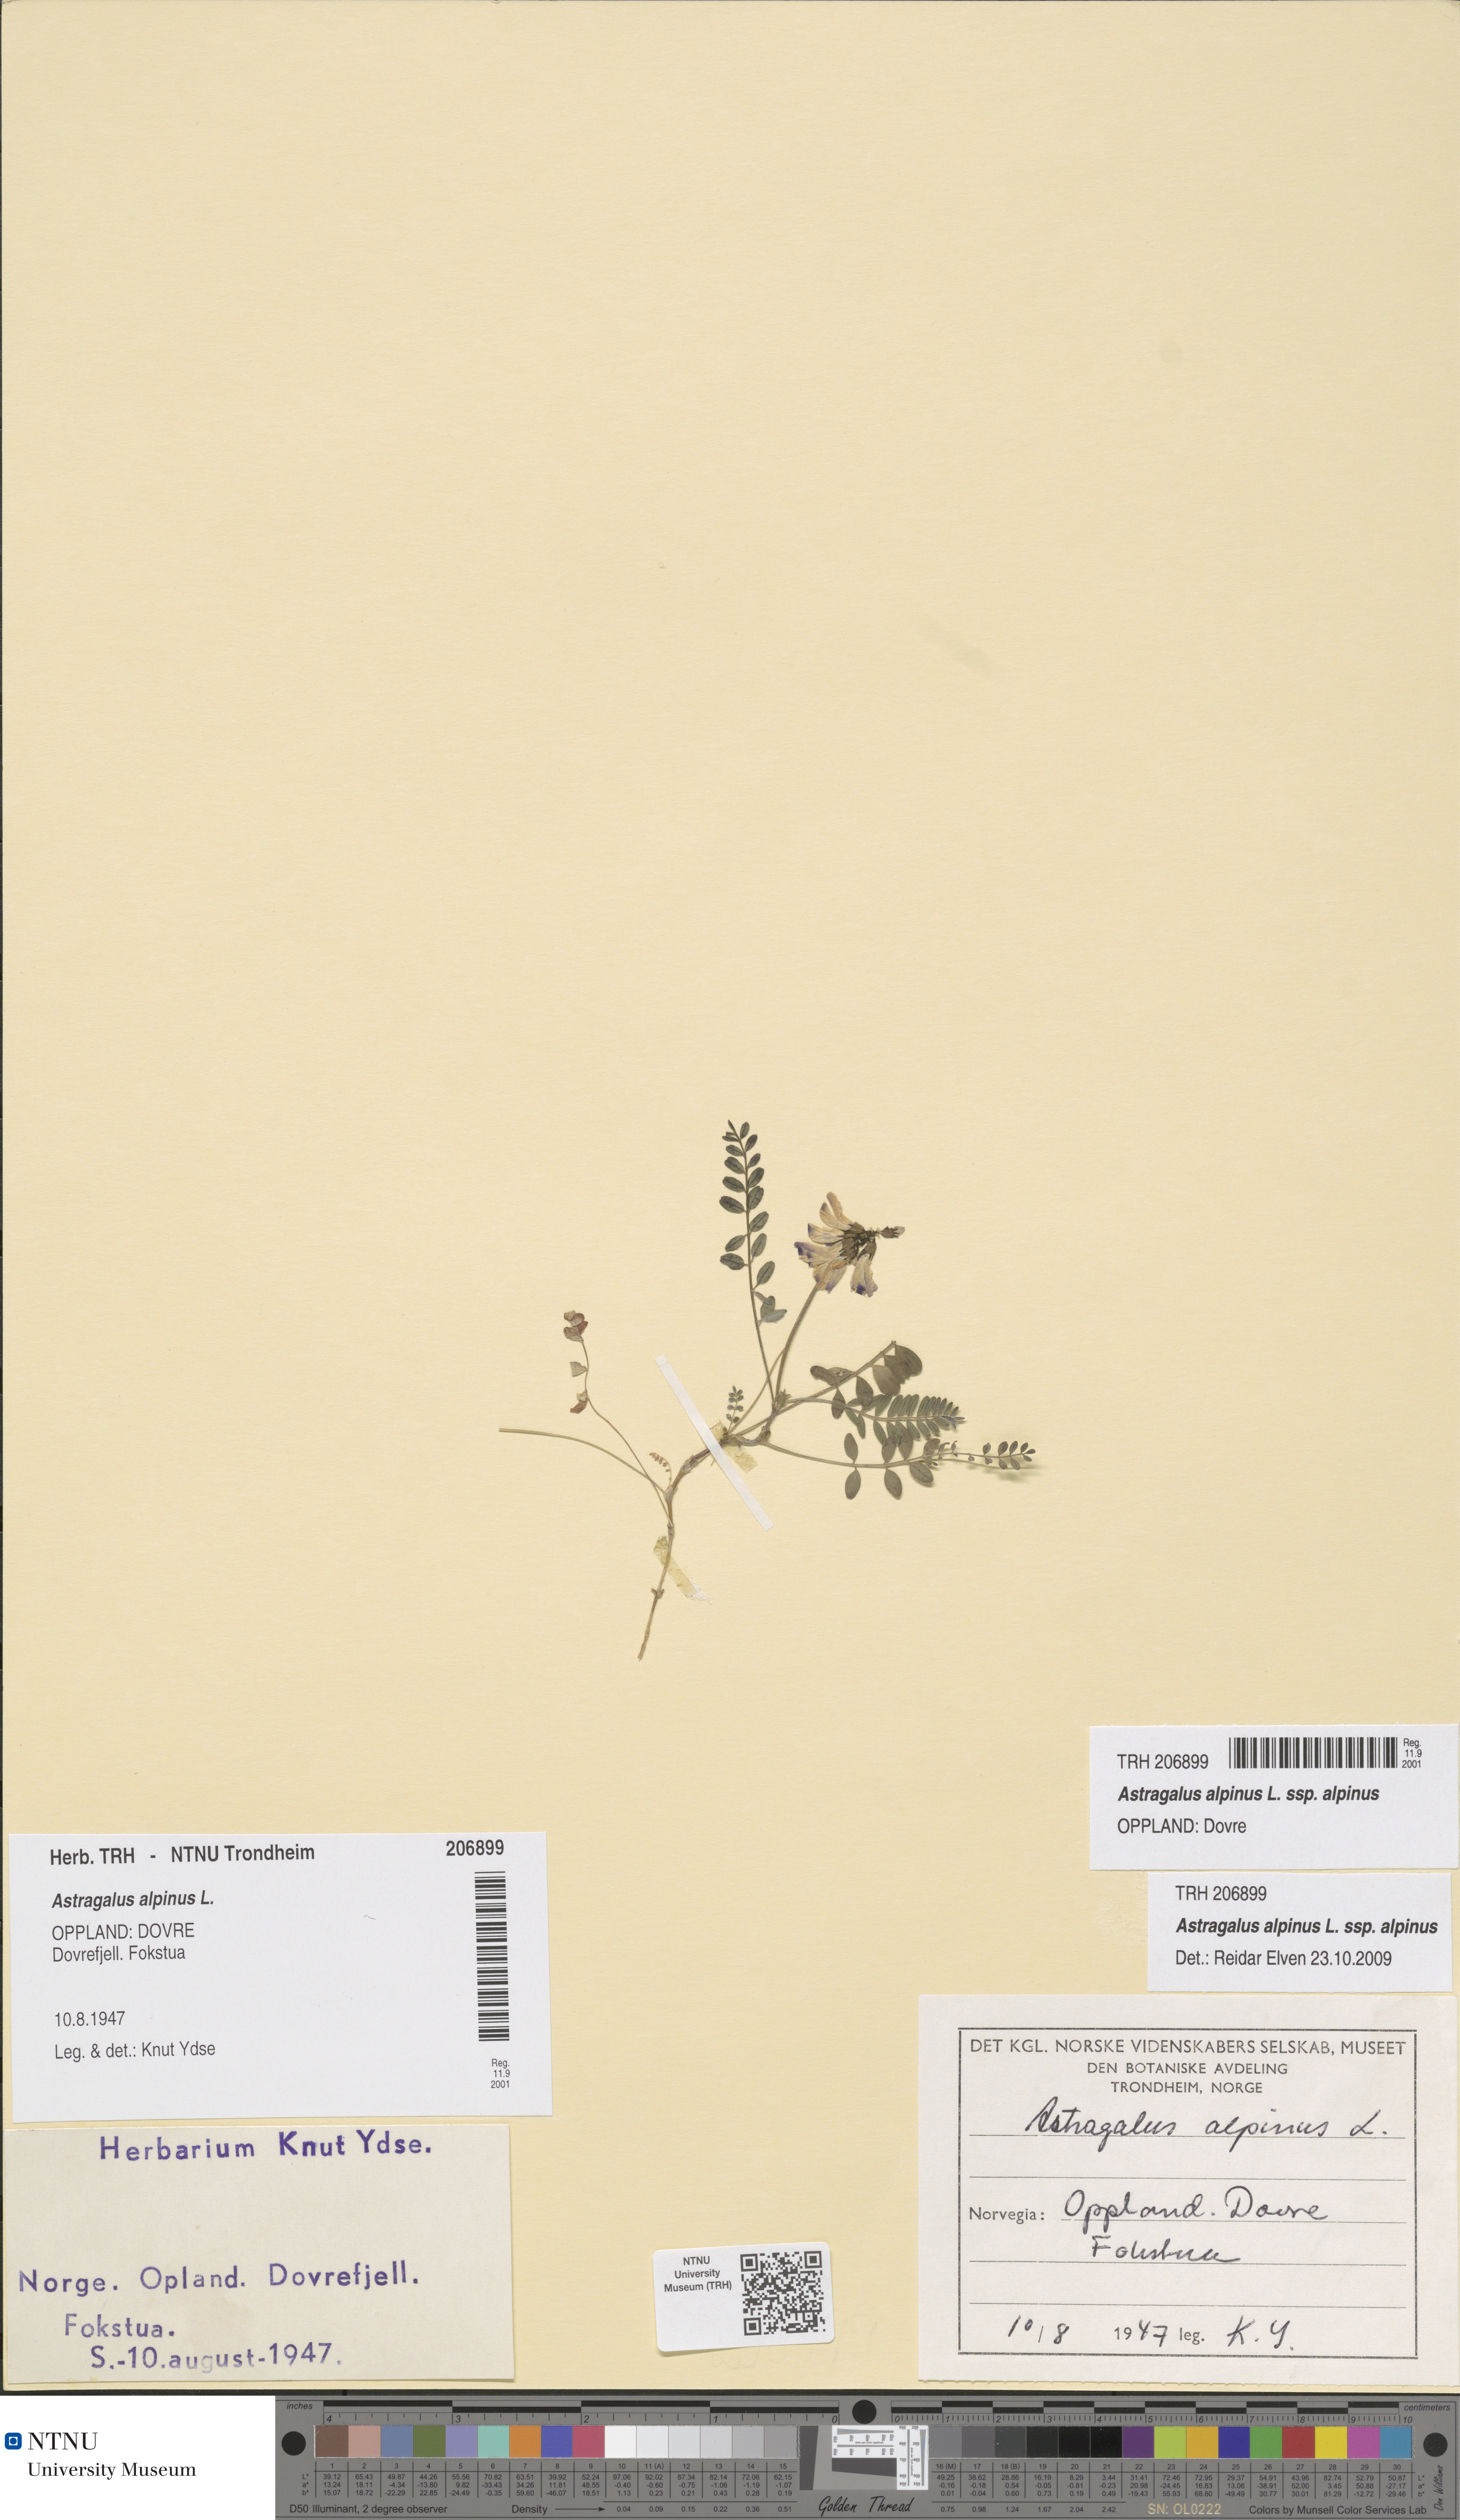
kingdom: Plantae
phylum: Tracheophyta
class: Magnoliopsida
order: Fabales
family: Fabaceae
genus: Astragalus
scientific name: Astragalus alpinus
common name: Alpine milk-vetch
